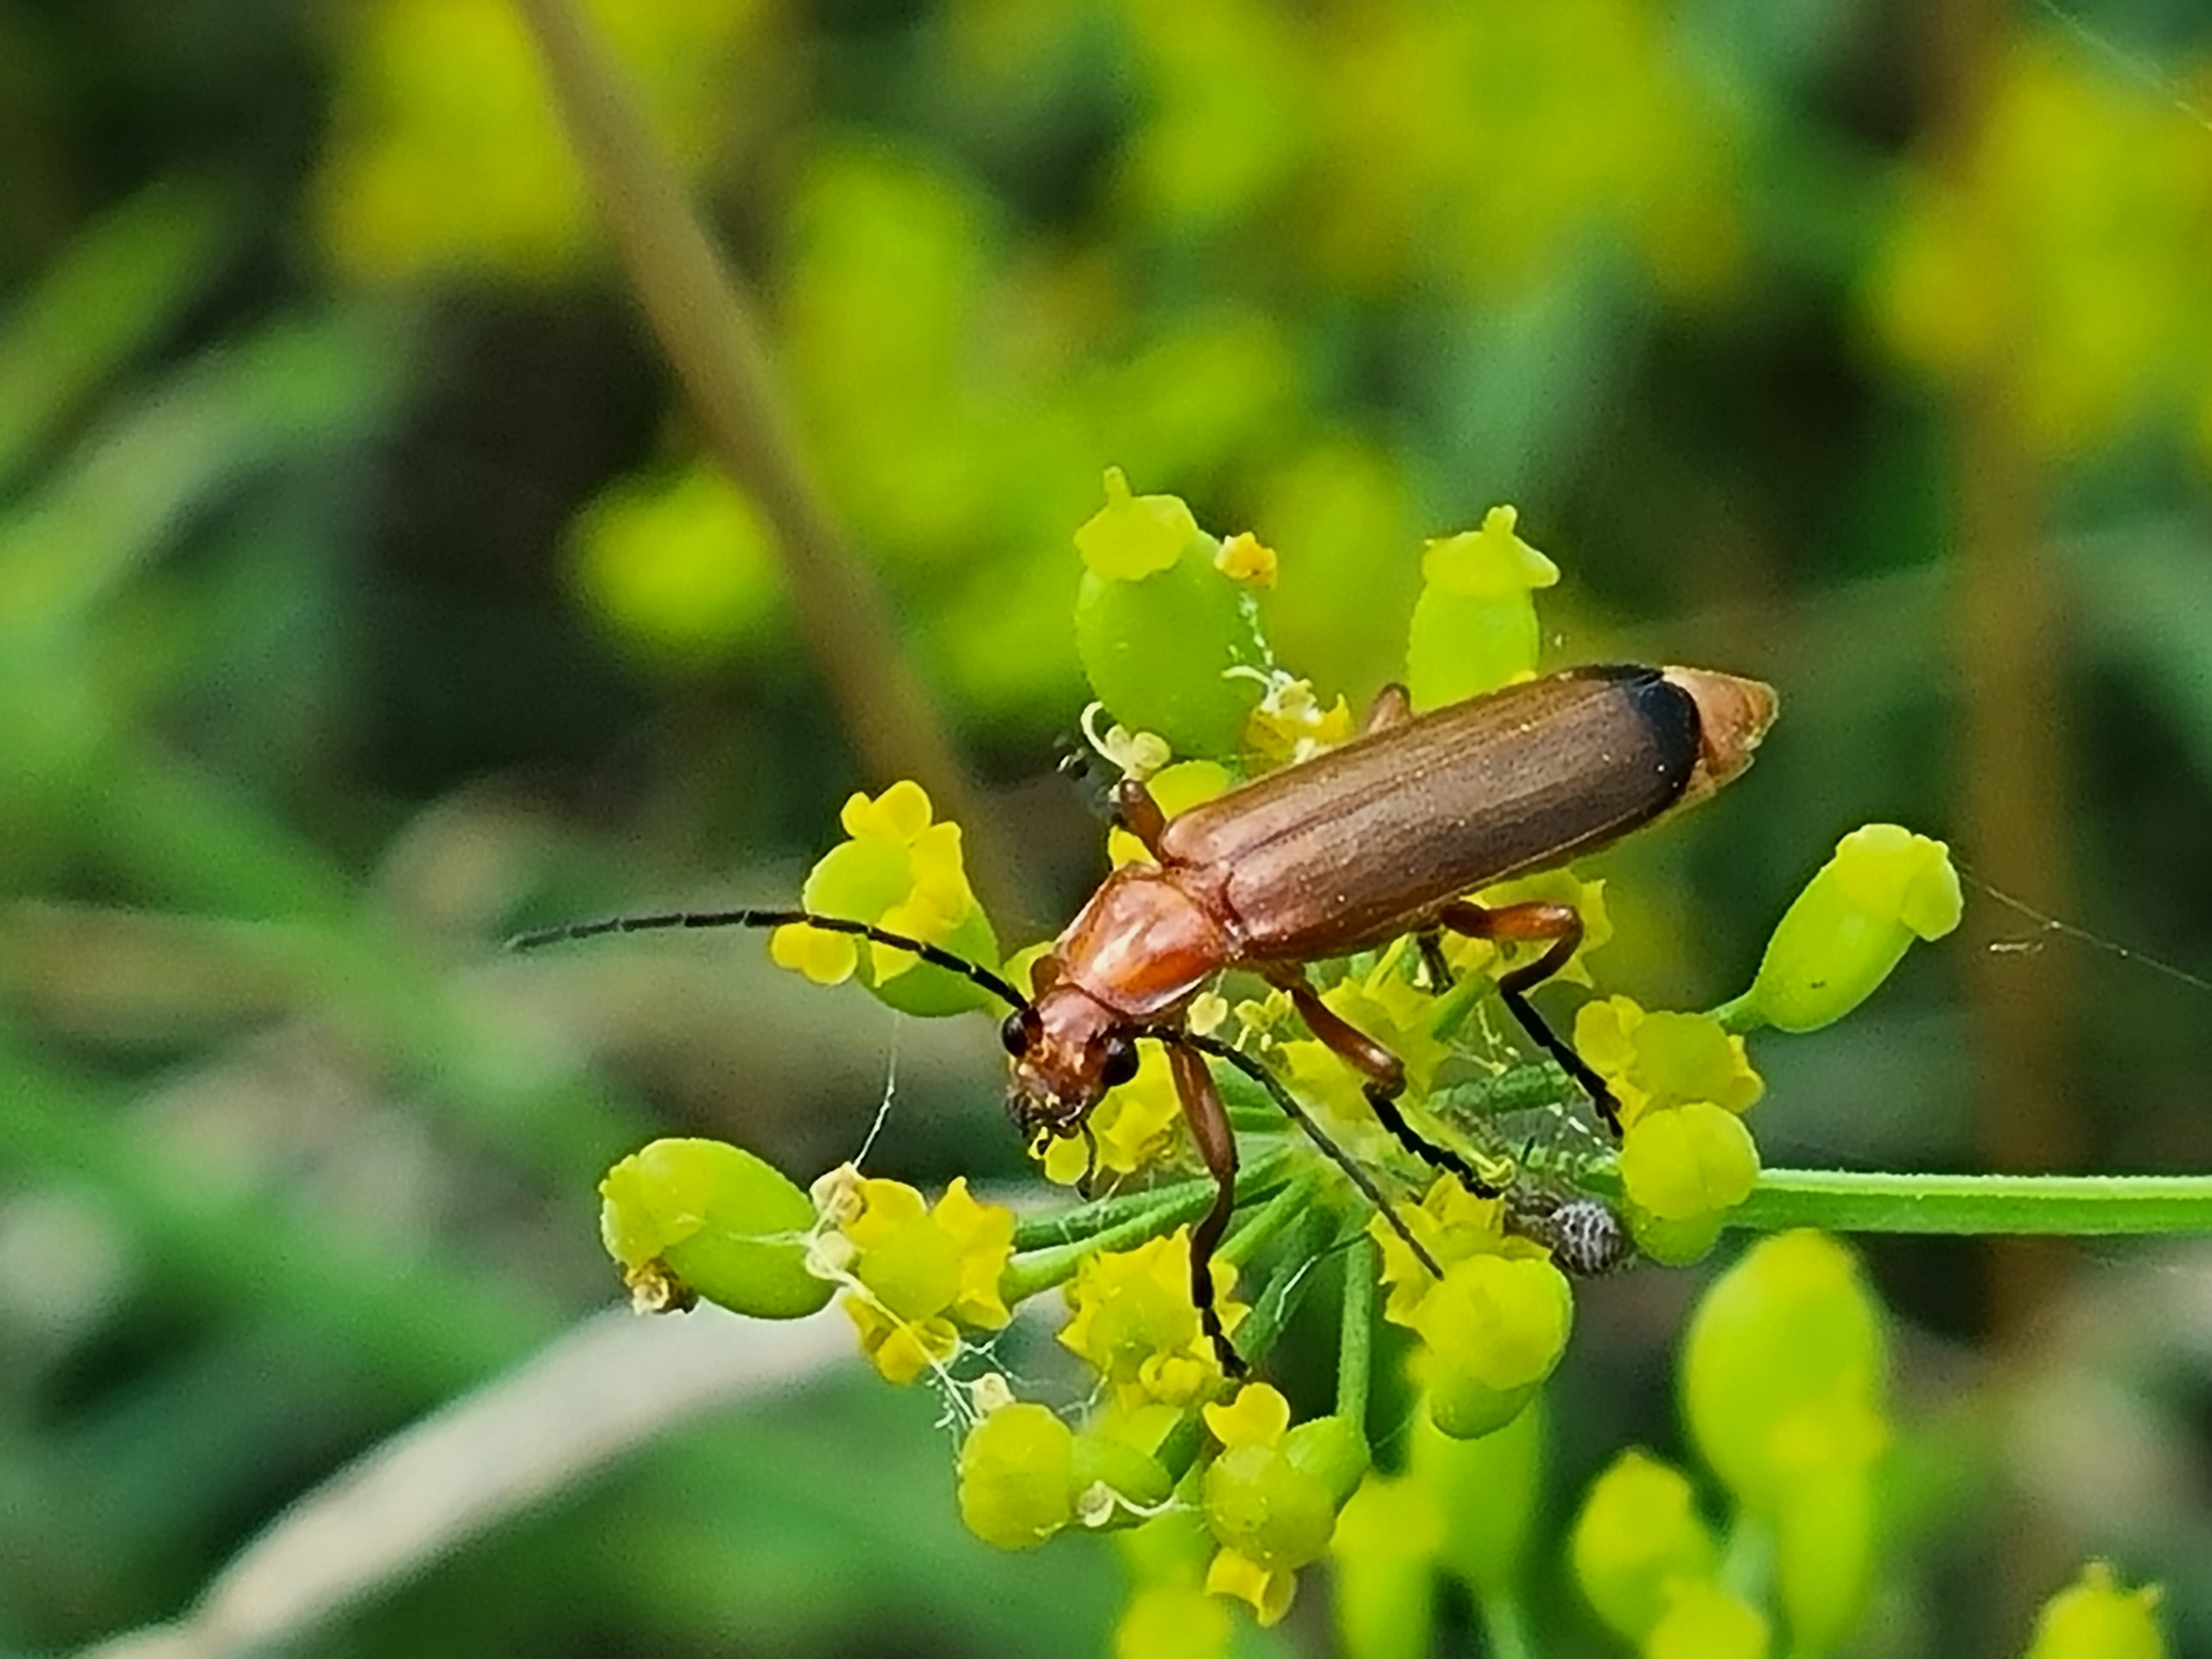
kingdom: Animalia
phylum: Arthropoda
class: Insecta
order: Coleoptera
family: Cantharidae
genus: Rhagonycha
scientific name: Rhagonycha fulva
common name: Præstebille
